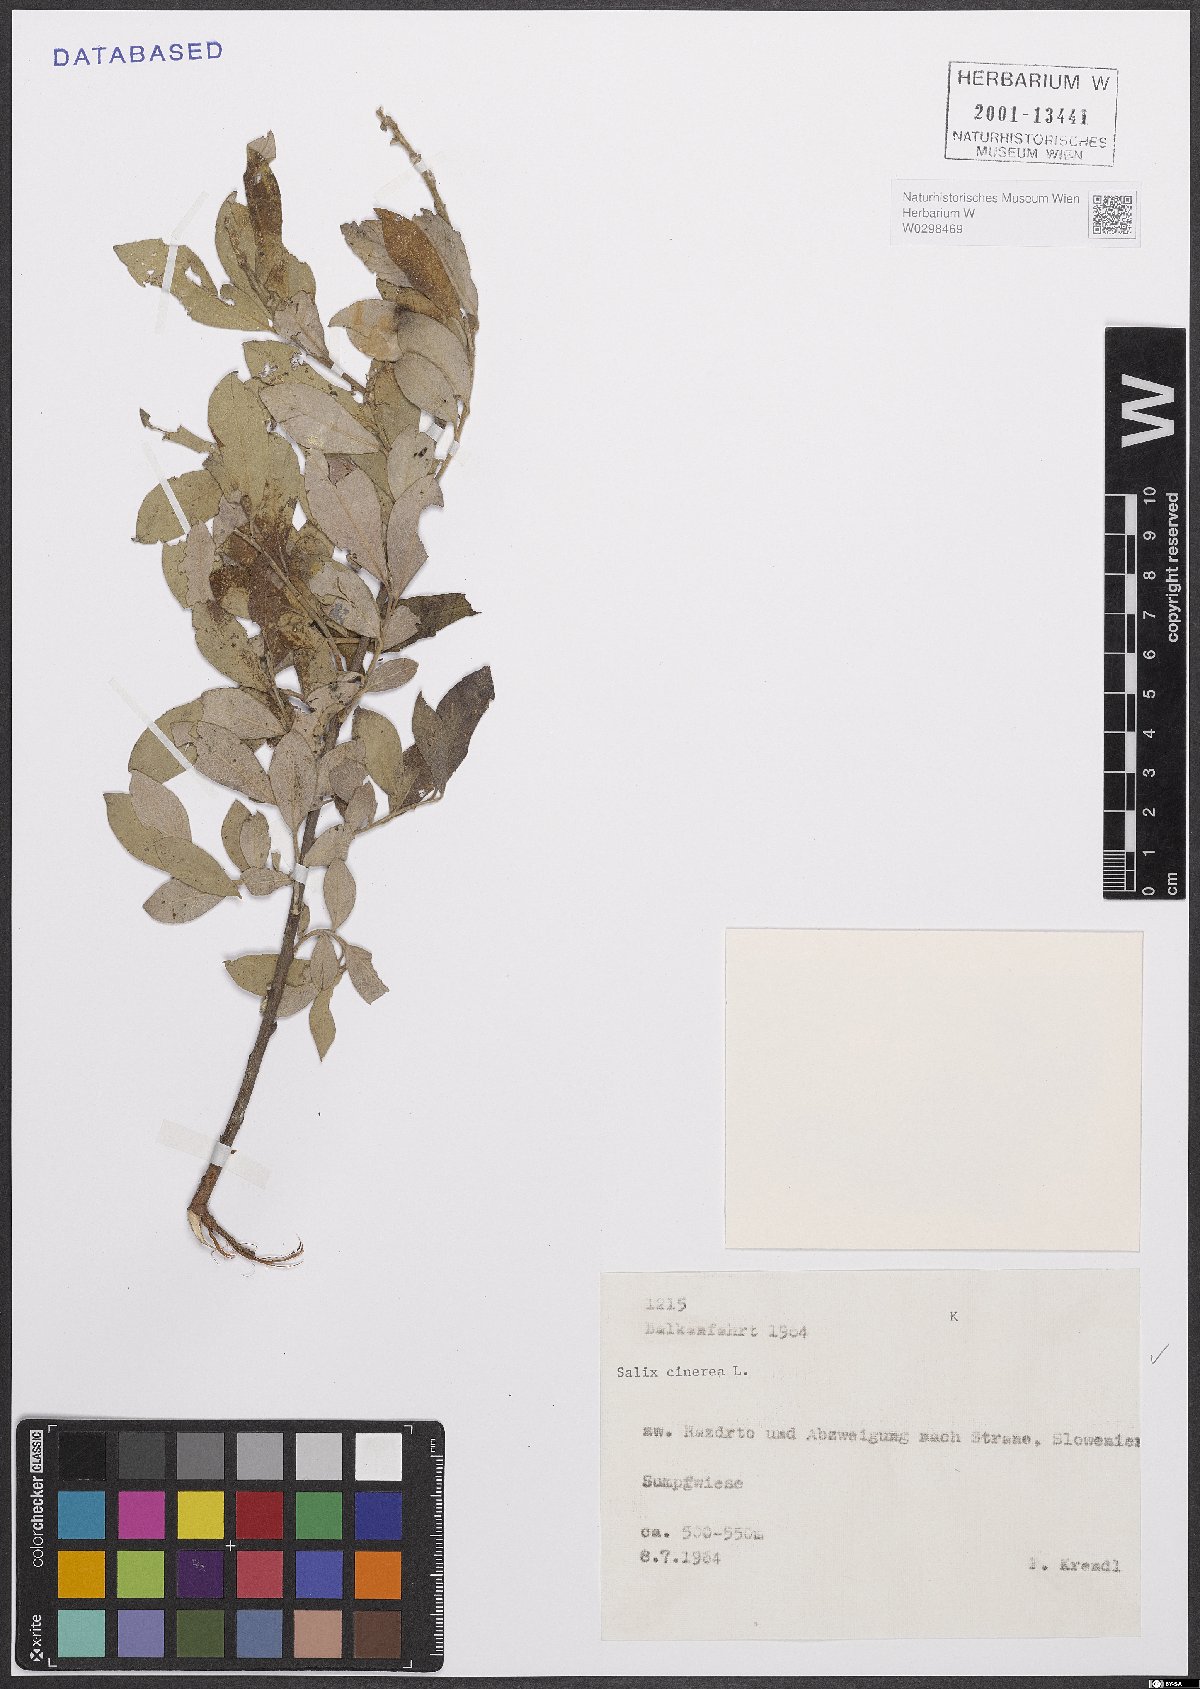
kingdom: Plantae
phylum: Tracheophyta
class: Magnoliopsida
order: Malpighiales
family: Salicaceae
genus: Salix
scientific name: Salix cinerea
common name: Common sallow
